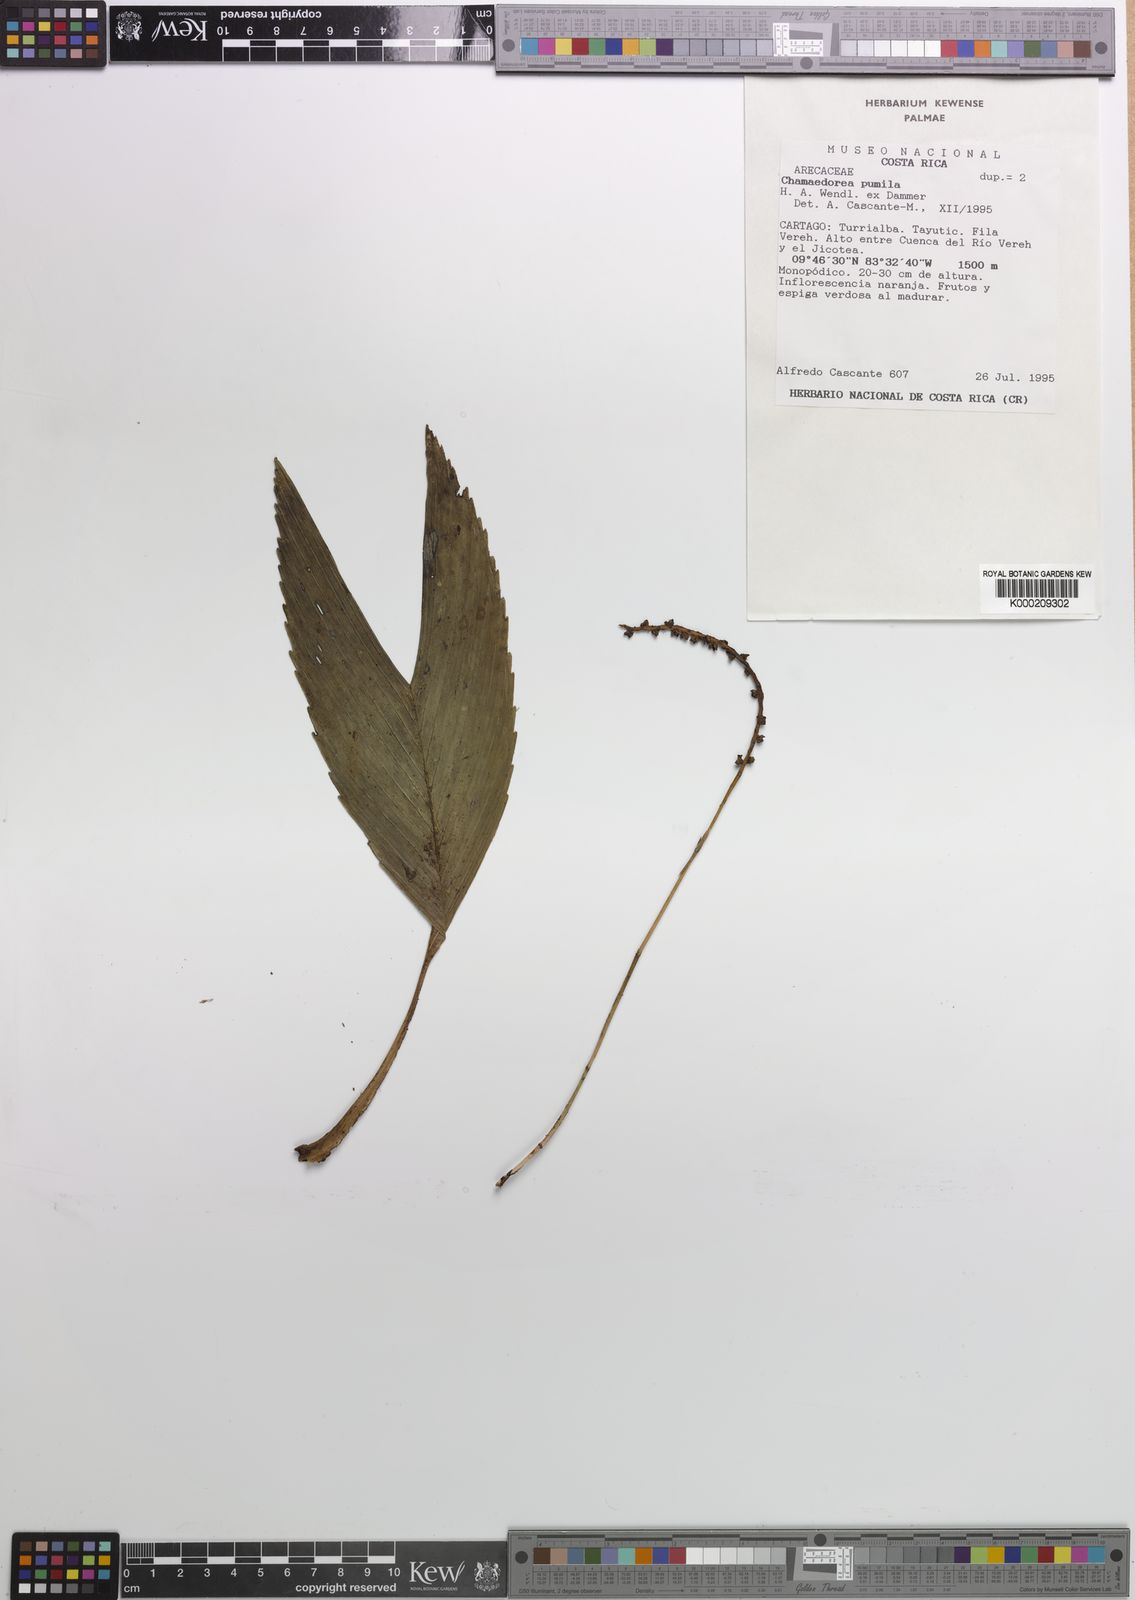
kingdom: Plantae
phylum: Tracheophyta
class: Liliopsida
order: Arecales
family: Arecaceae
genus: Chamaedorea
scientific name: Chamaedorea pumila
